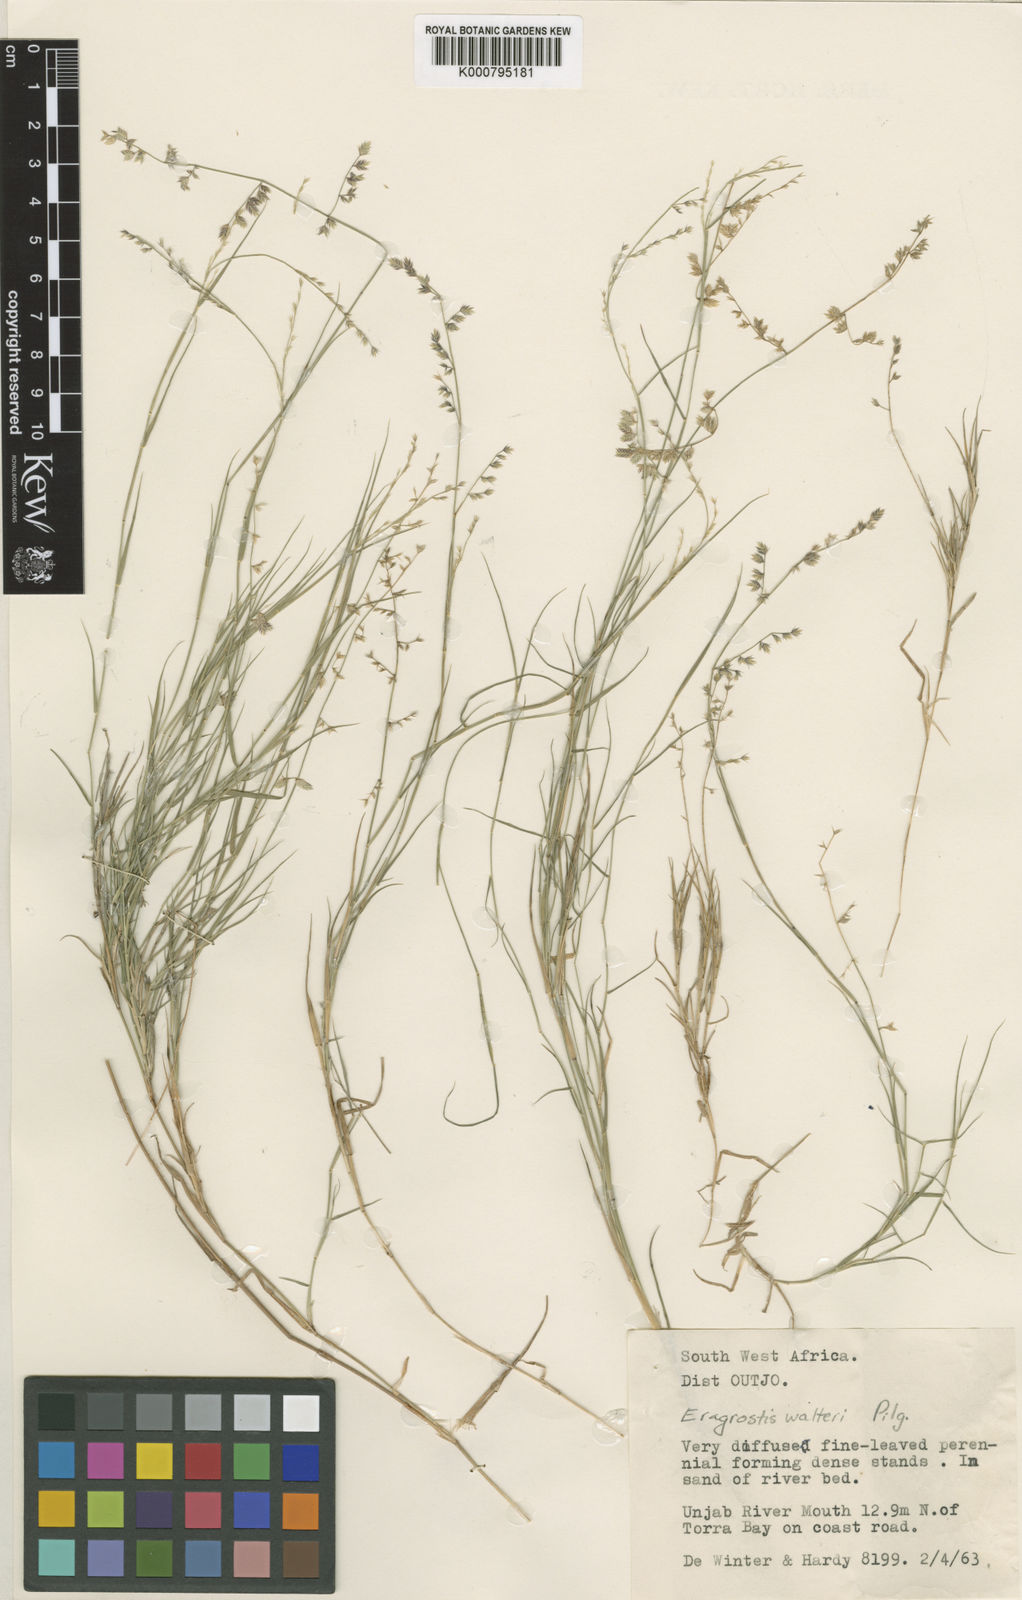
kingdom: Plantae
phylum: Tracheophyta
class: Liliopsida
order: Poales
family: Poaceae
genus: Pratochloa
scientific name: Pratochloa walteri
